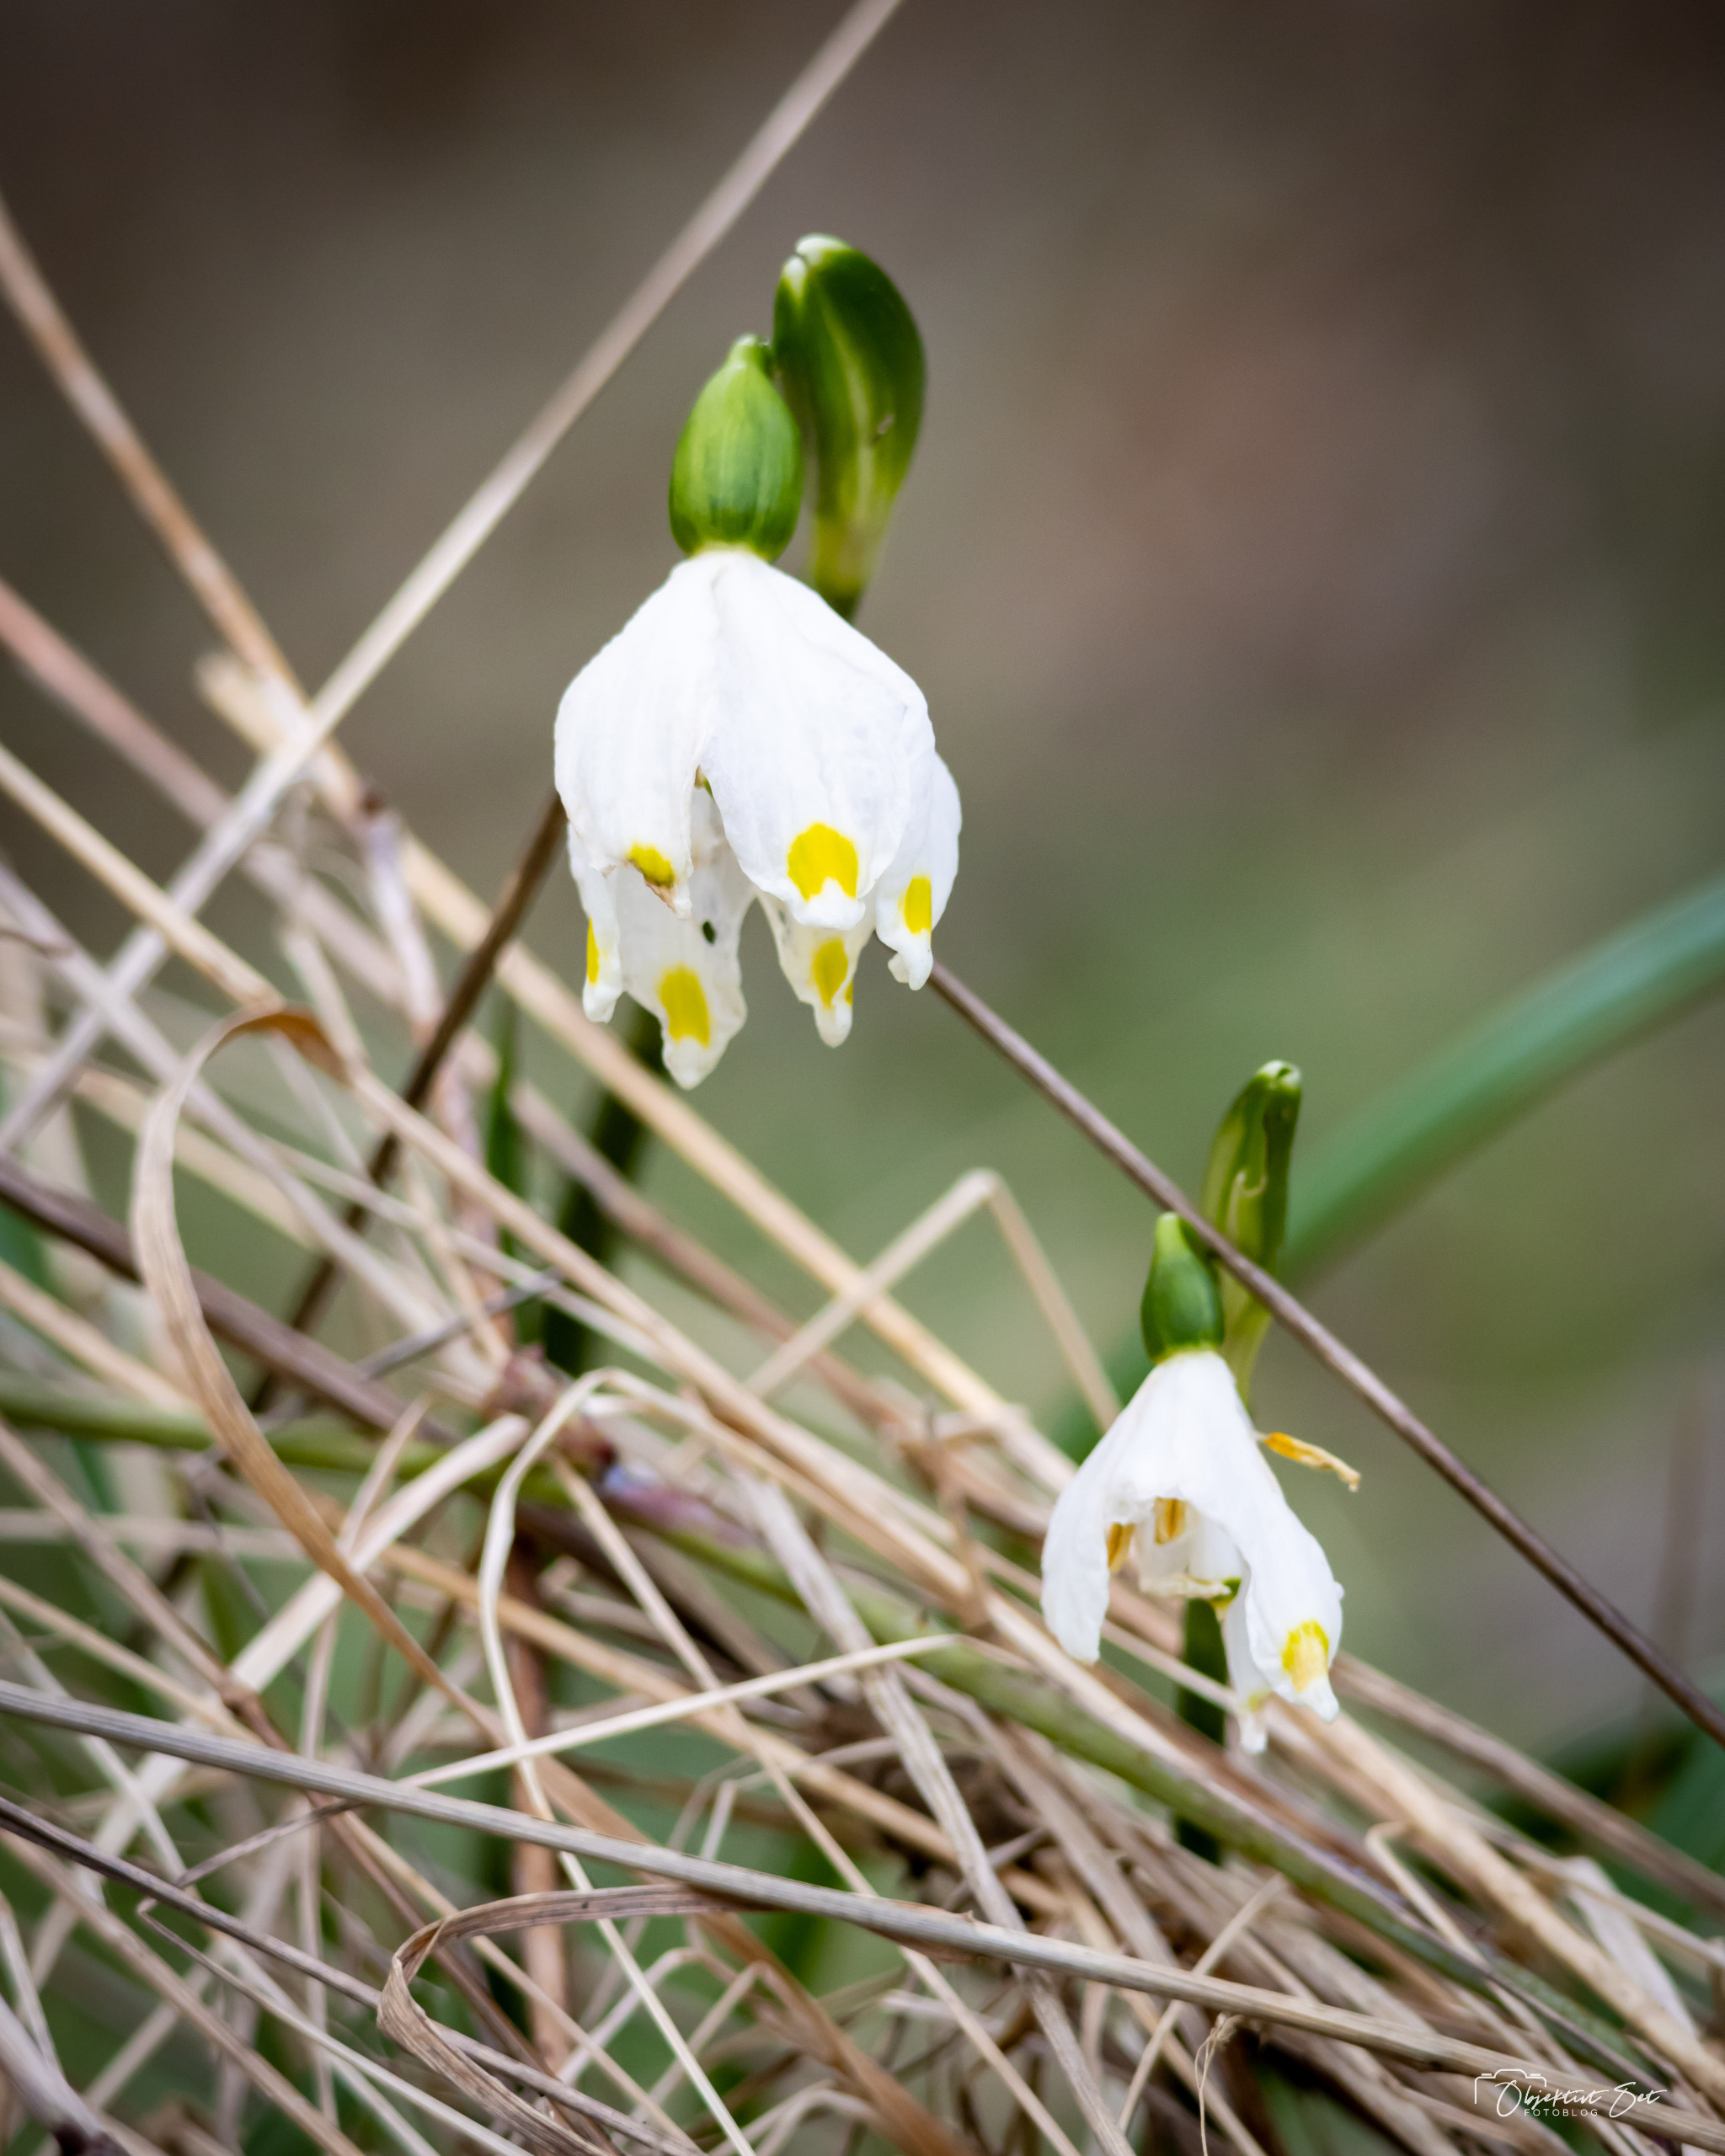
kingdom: Plantae
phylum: Tracheophyta
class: Liliopsida
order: Asparagales
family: Amaryllidaceae
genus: Leucojum
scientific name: Leucojum vernum
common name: Dorthealilje
